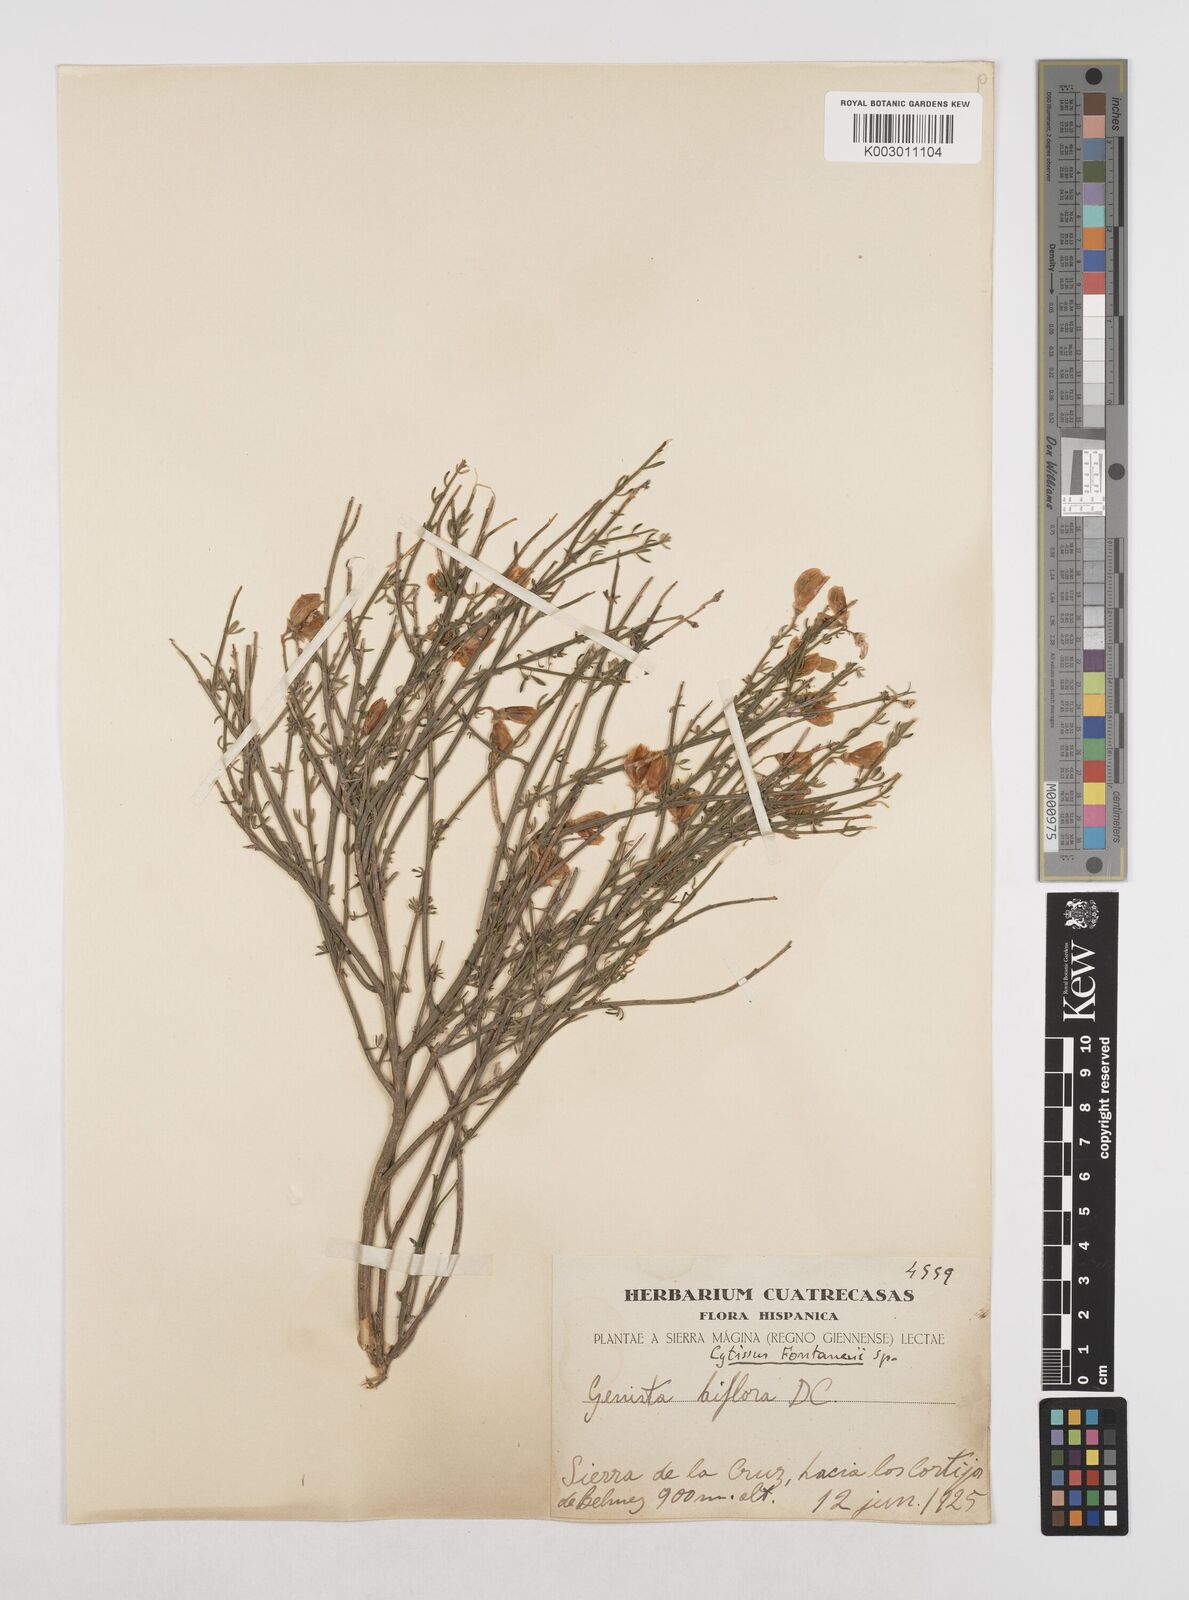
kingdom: Plantae
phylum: Tracheophyta
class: Magnoliopsida
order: Fabales
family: Fabaceae
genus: Cytisus
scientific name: Cytisus fontanesii
